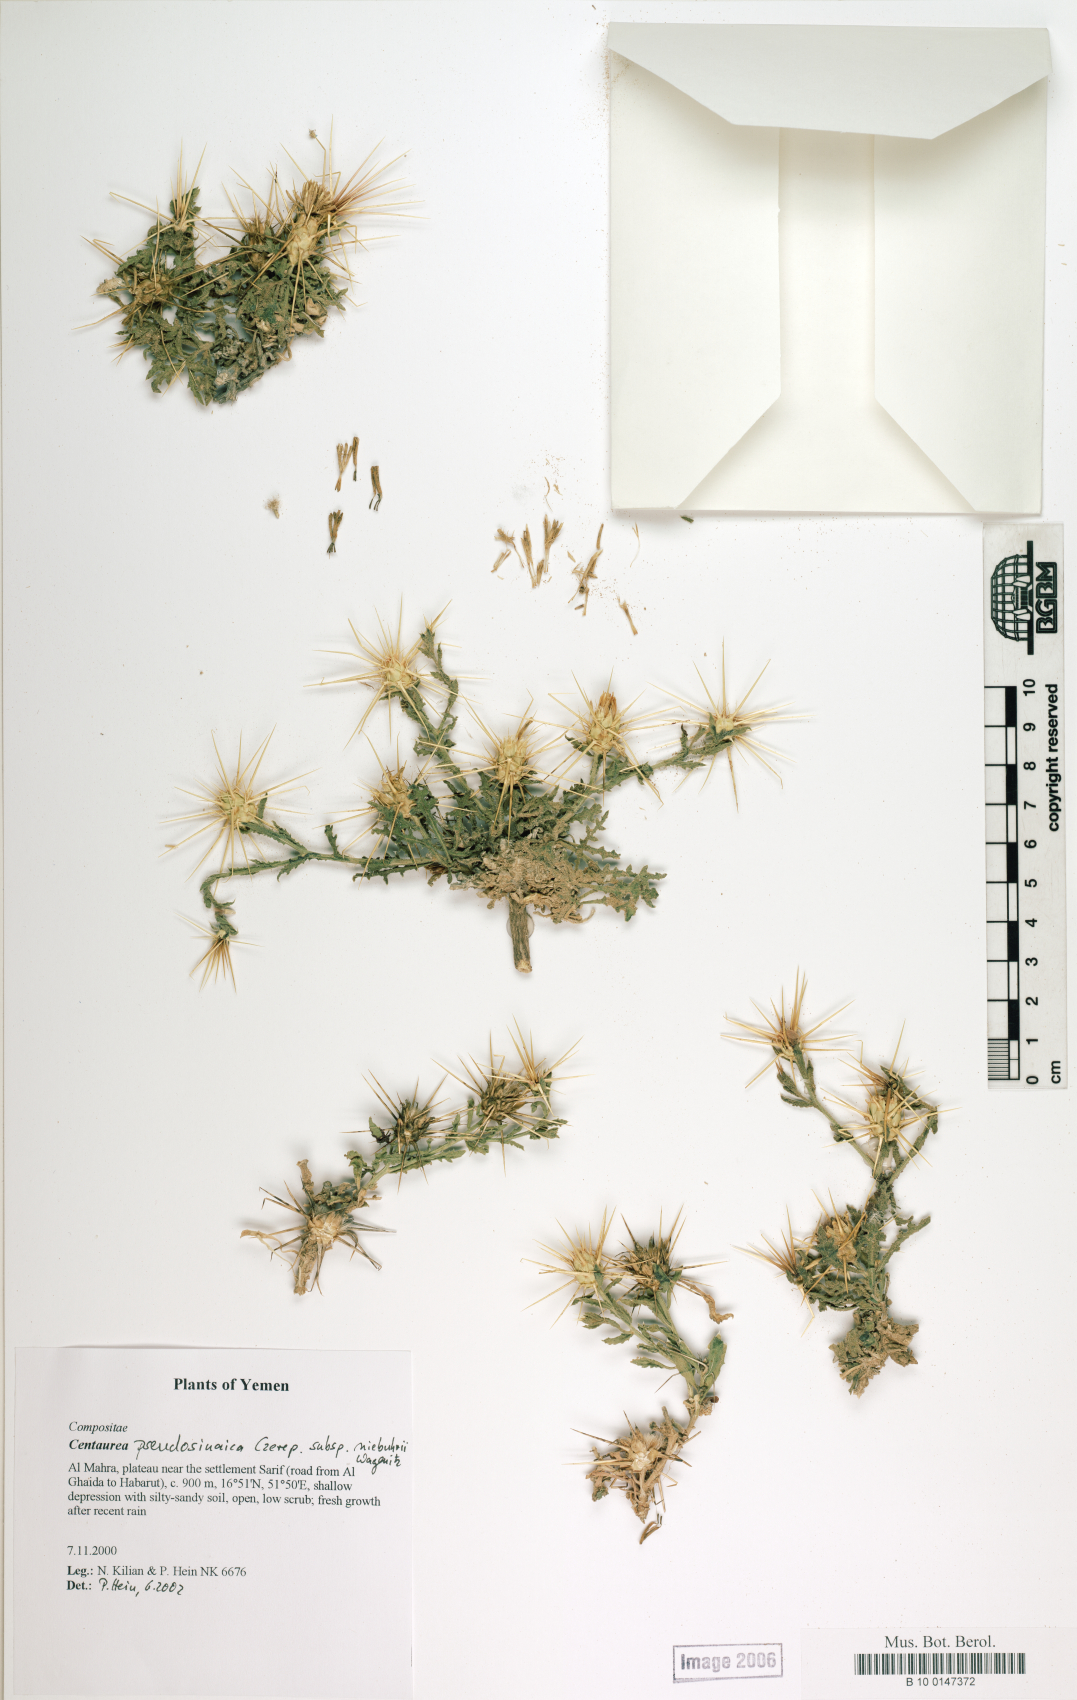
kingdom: Plantae
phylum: Tracheophyta
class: Magnoliopsida
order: Asterales
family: Asteraceae
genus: Centaurea
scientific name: Centaurea pseudosinaica
